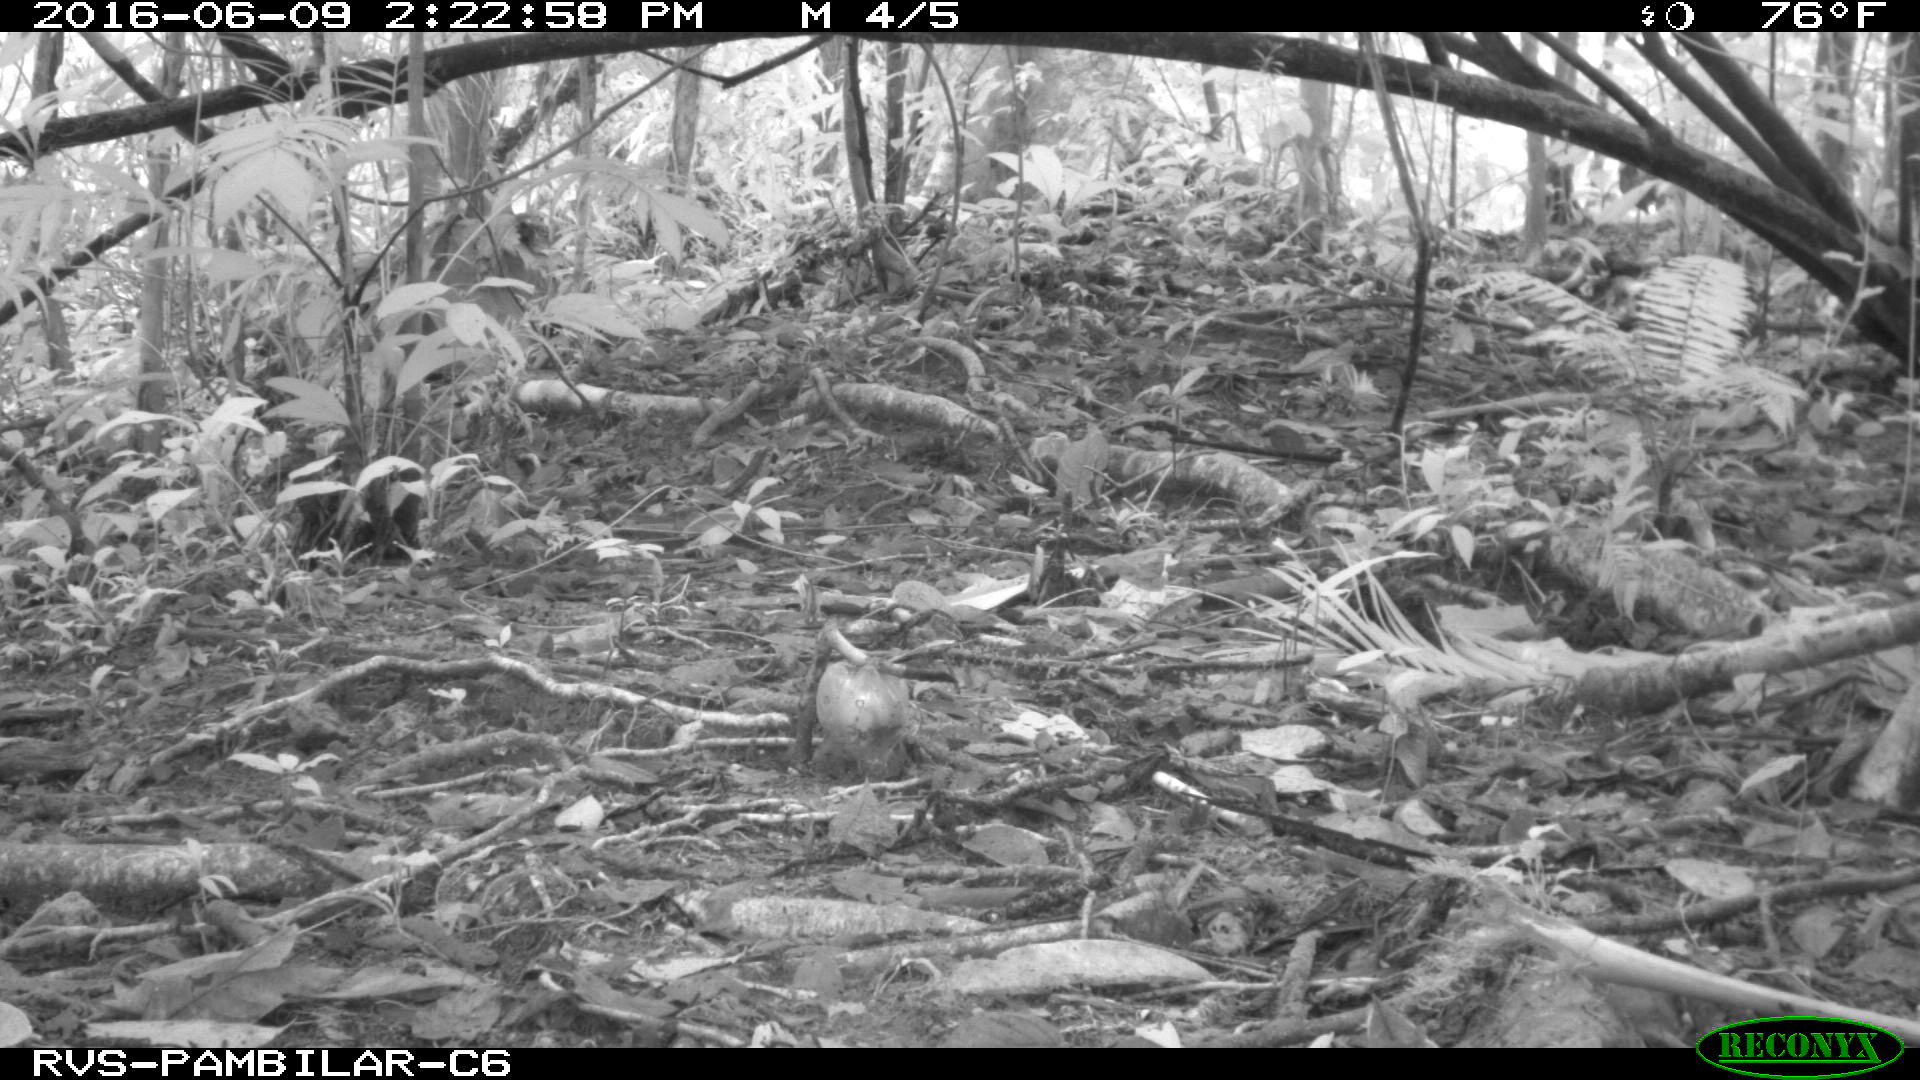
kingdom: Animalia
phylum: Chordata
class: Mammalia
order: Carnivora
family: Mustelidae
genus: Eira
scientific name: Eira barbara
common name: Tayra
